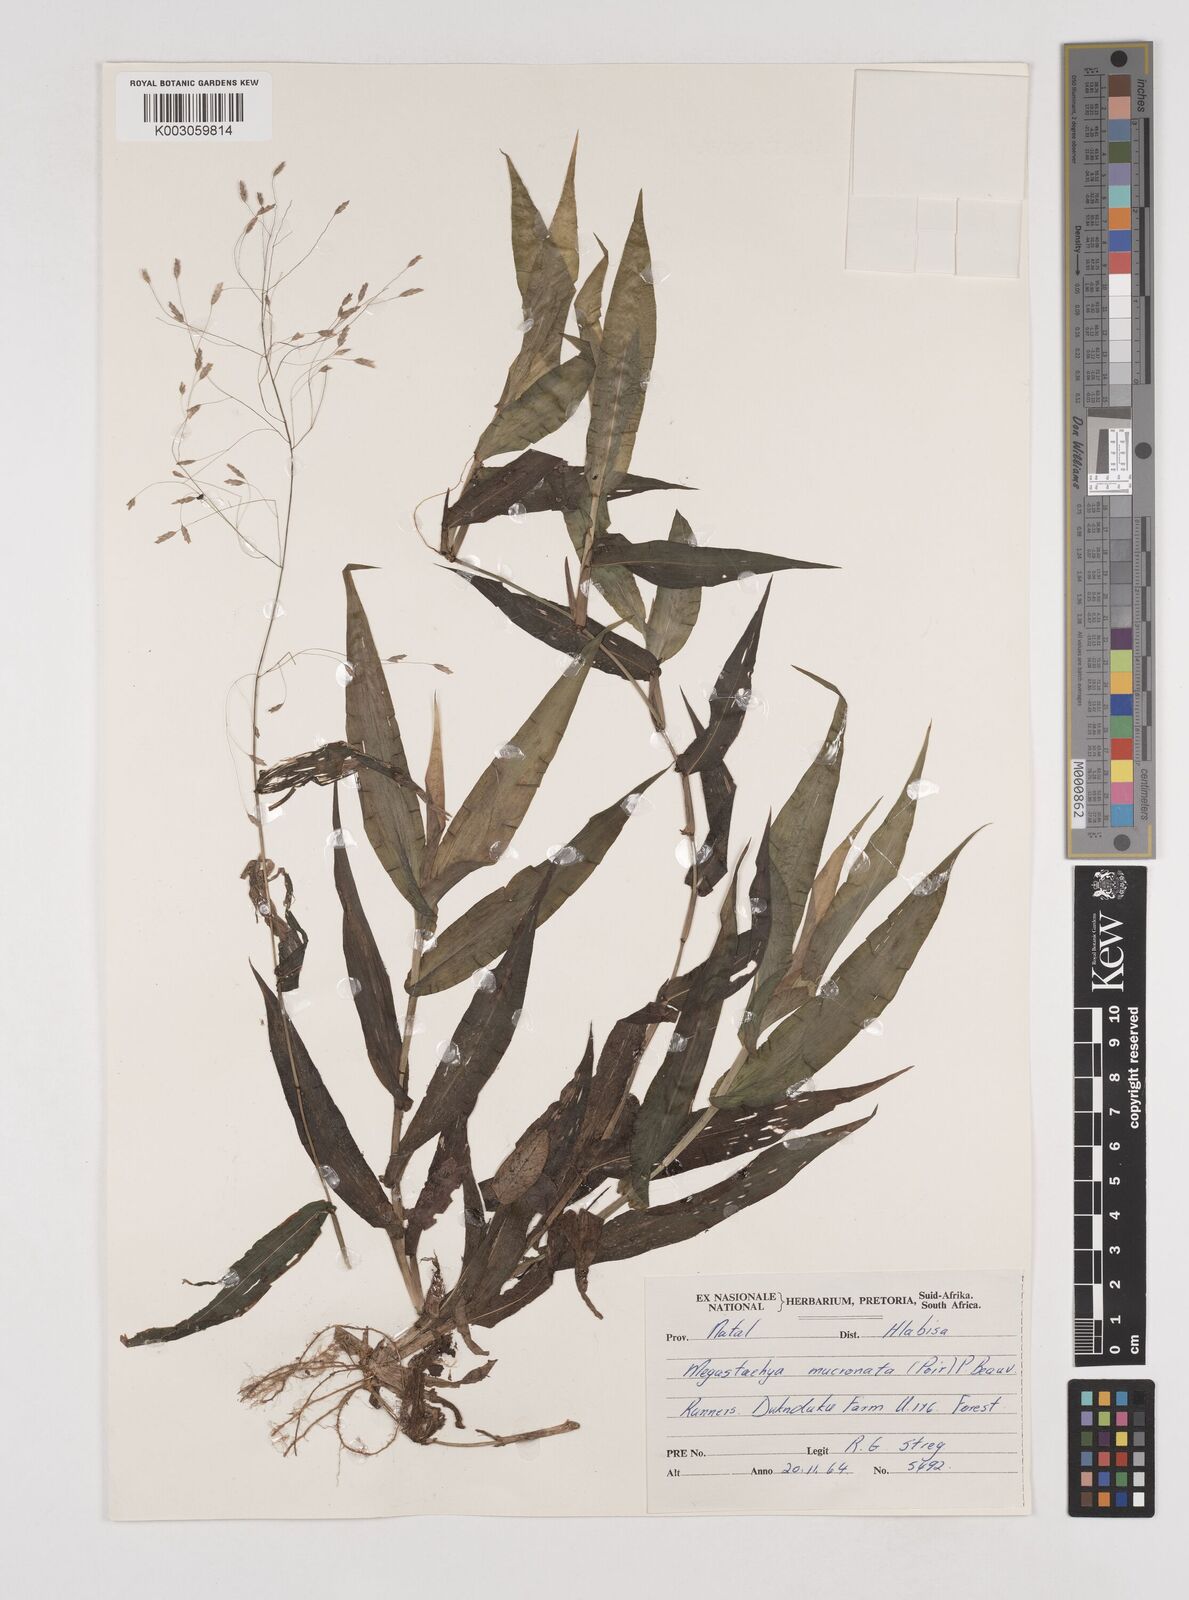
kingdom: Plantae
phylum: Tracheophyta
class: Liliopsida
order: Poales
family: Poaceae
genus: Megastachya
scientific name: Megastachya mucronata
